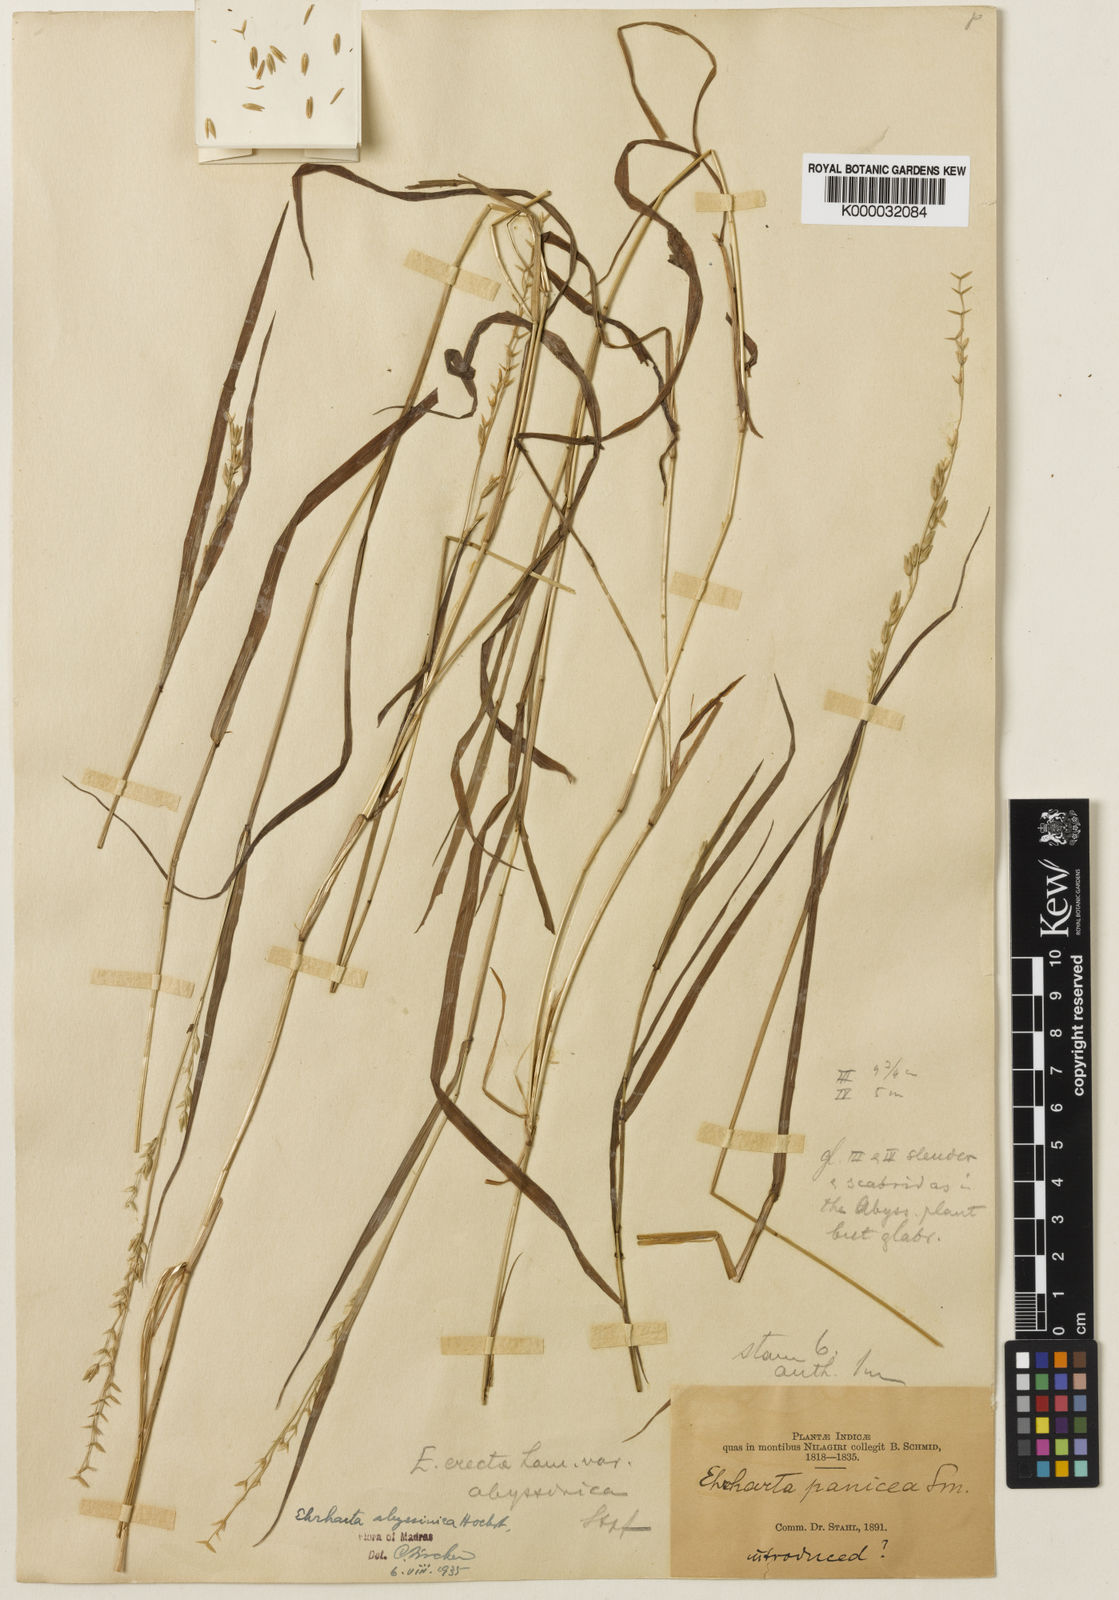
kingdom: Plantae
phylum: Tracheophyta
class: Liliopsida
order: Poales
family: Poaceae
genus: Ehrharta
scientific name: Ehrharta erecta
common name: Panic veldtgrass
